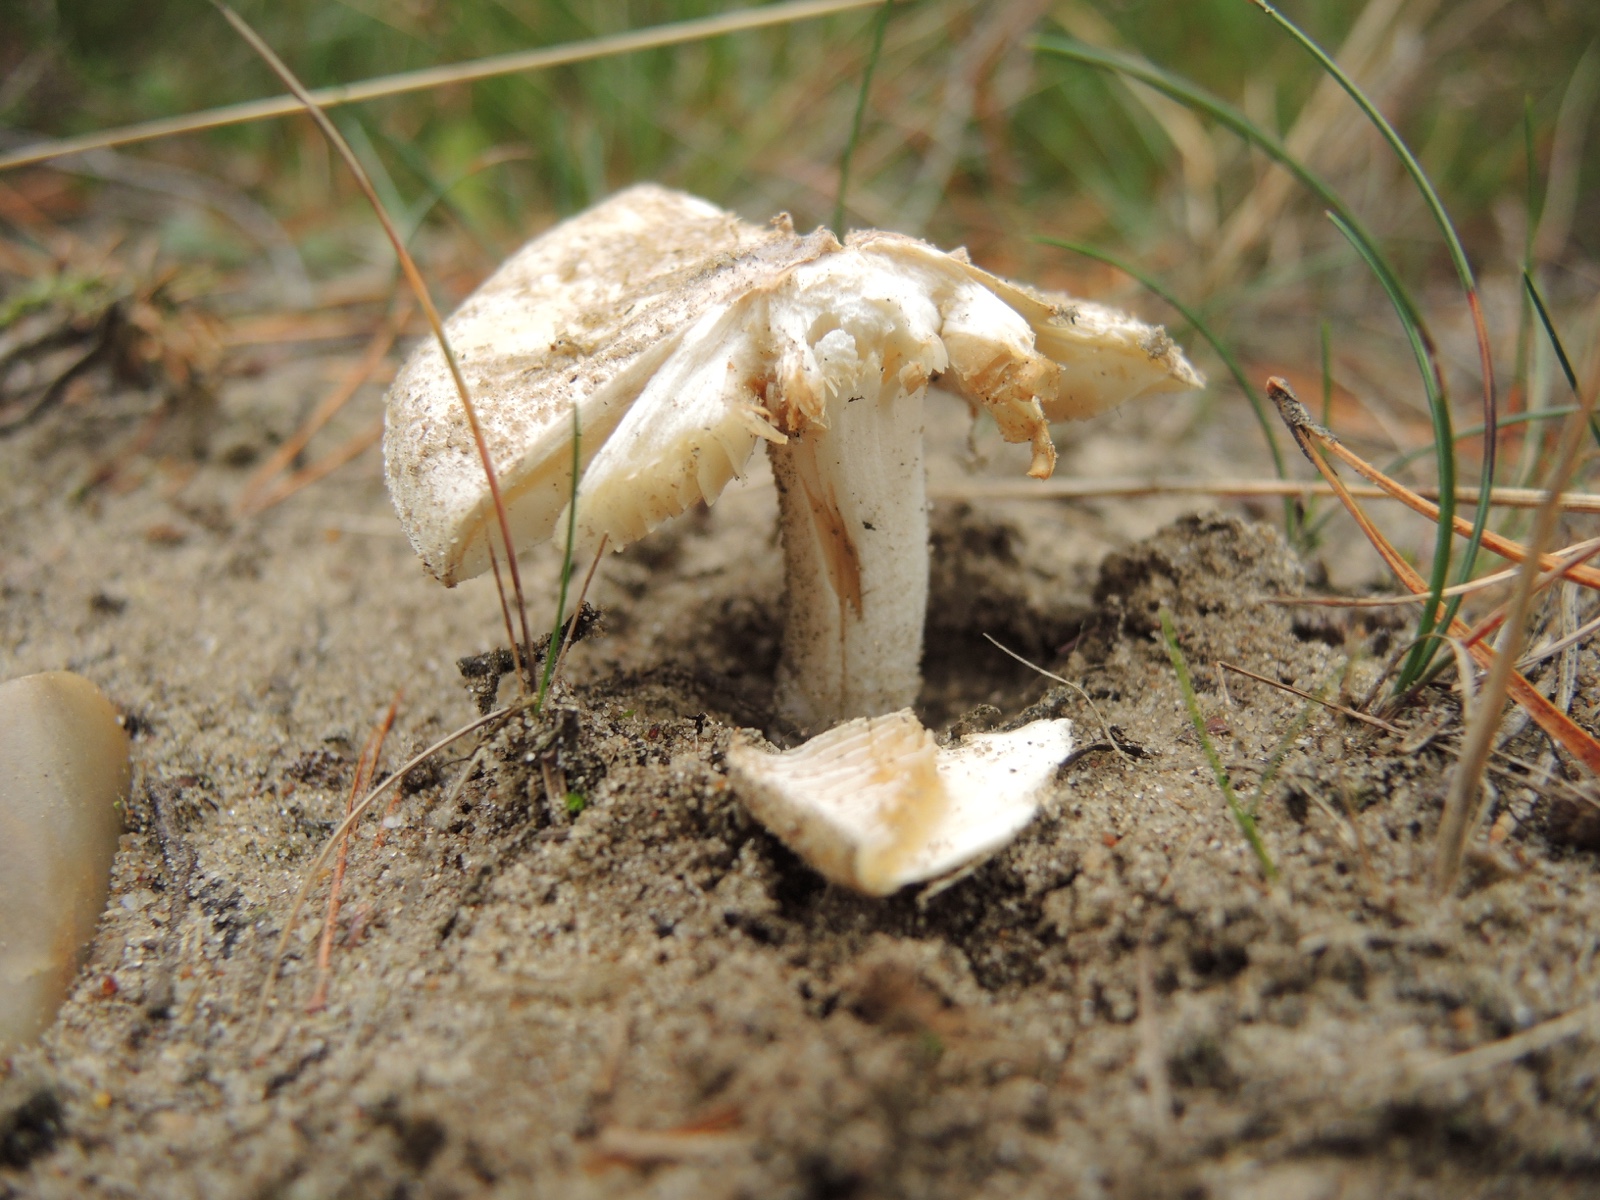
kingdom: Fungi
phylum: Basidiomycota
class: Agaricomycetes
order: Agaricales
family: Inocybaceae
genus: Inocybe
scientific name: Inocybe sambucina
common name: hyldehvid trævlhat
